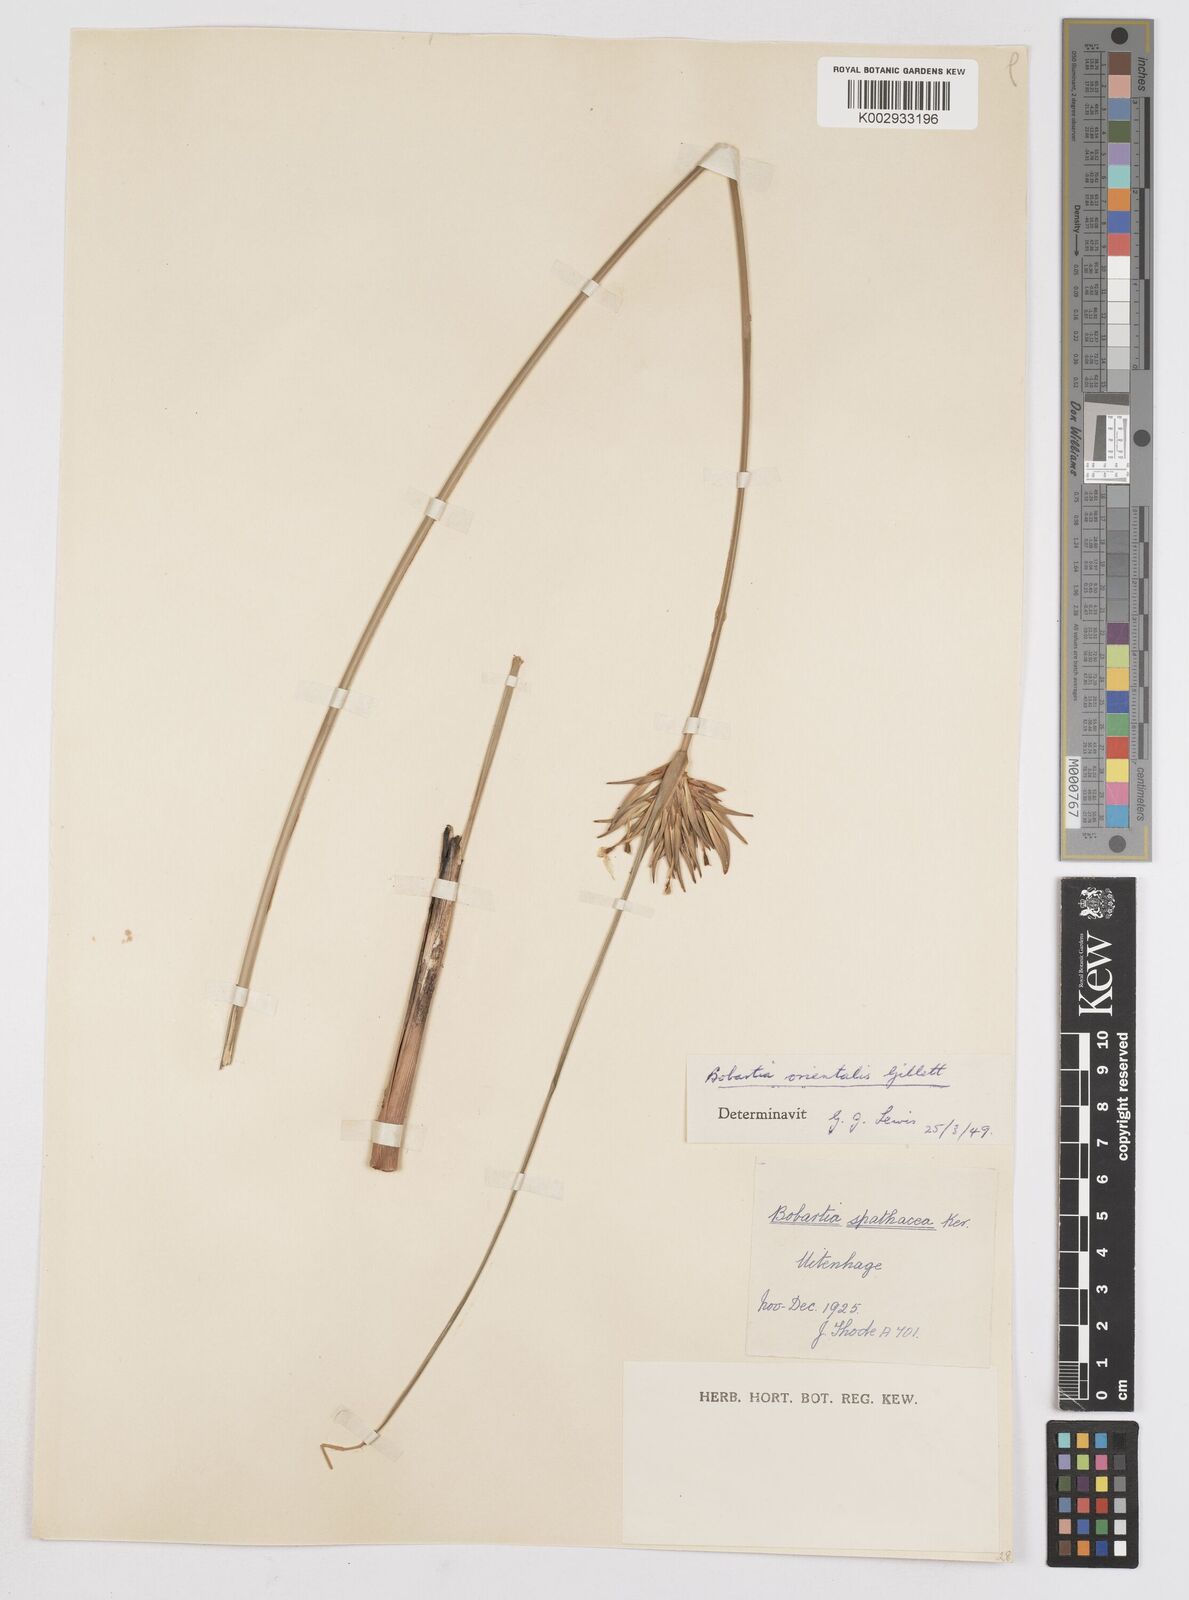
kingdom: Plantae
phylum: Tracheophyta
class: Liliopsida
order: Asparagales
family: Iridaceae
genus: Bobartia
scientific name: Bobartia orientalis
